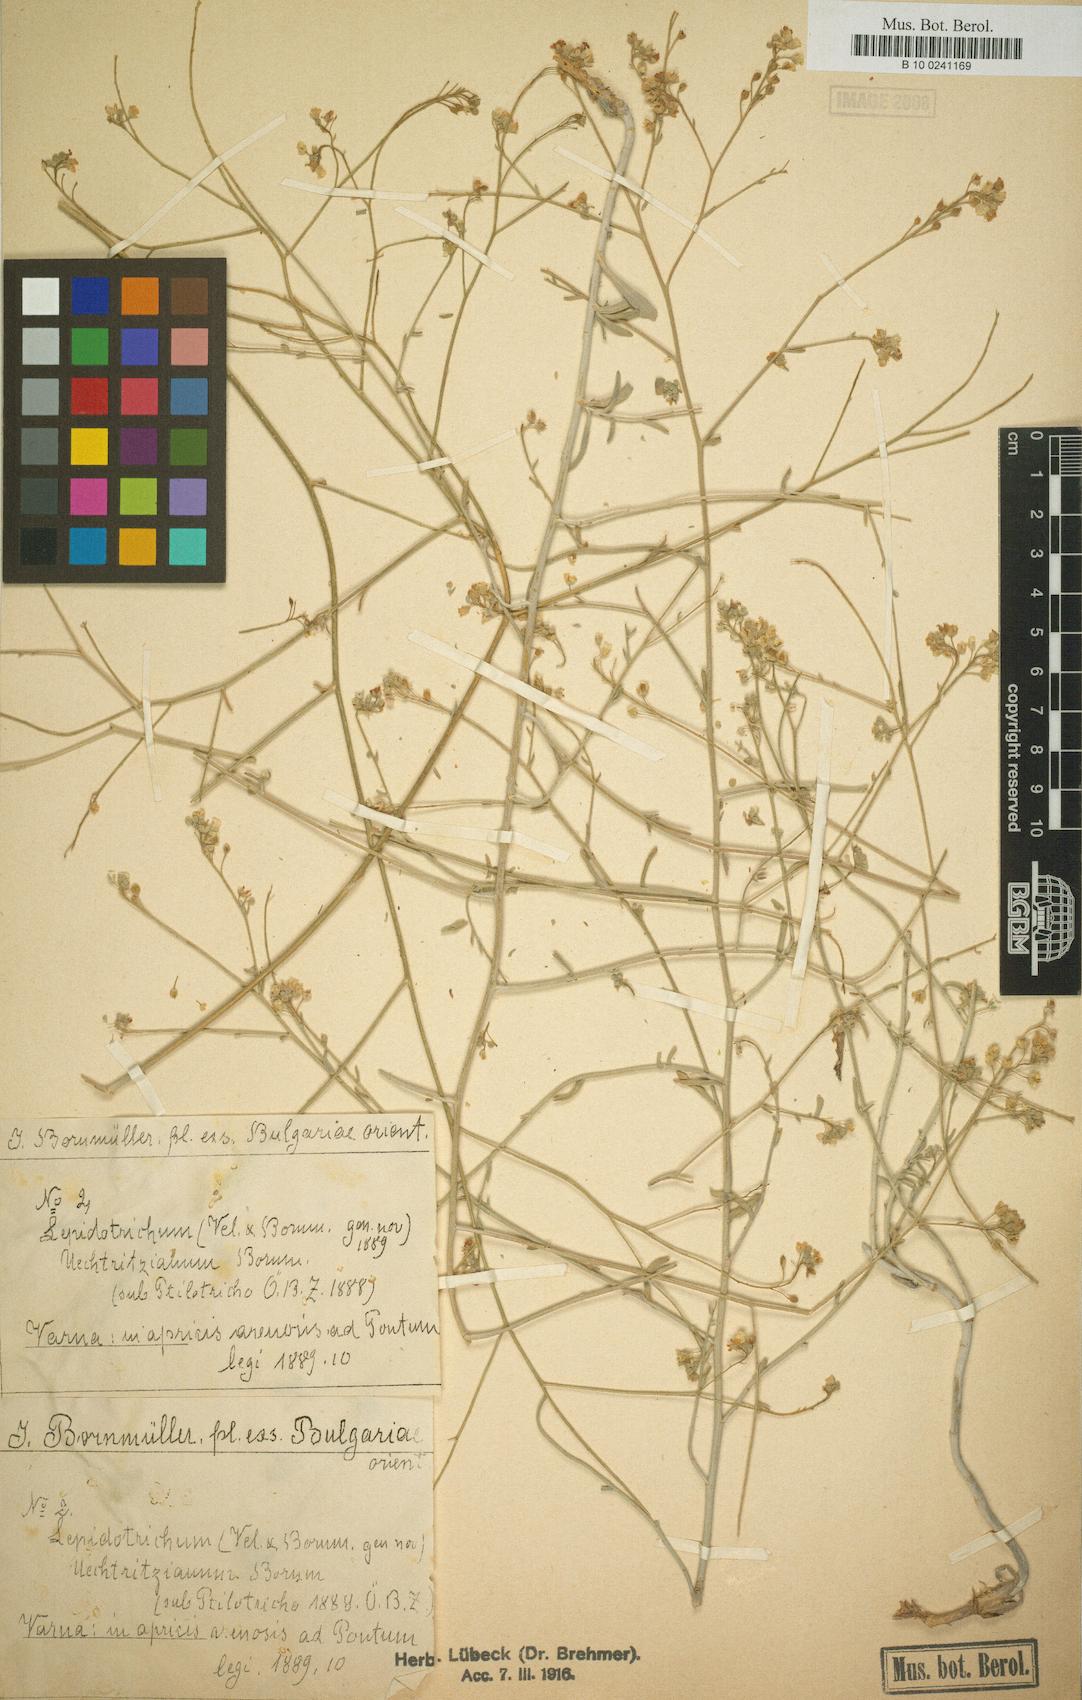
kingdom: Plantae
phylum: Tracheophyta
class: Magnoliopsida
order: Brassicales
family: Brassicaceae
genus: Lepidotrichum
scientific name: Lepidotrichum uechtritzianum
